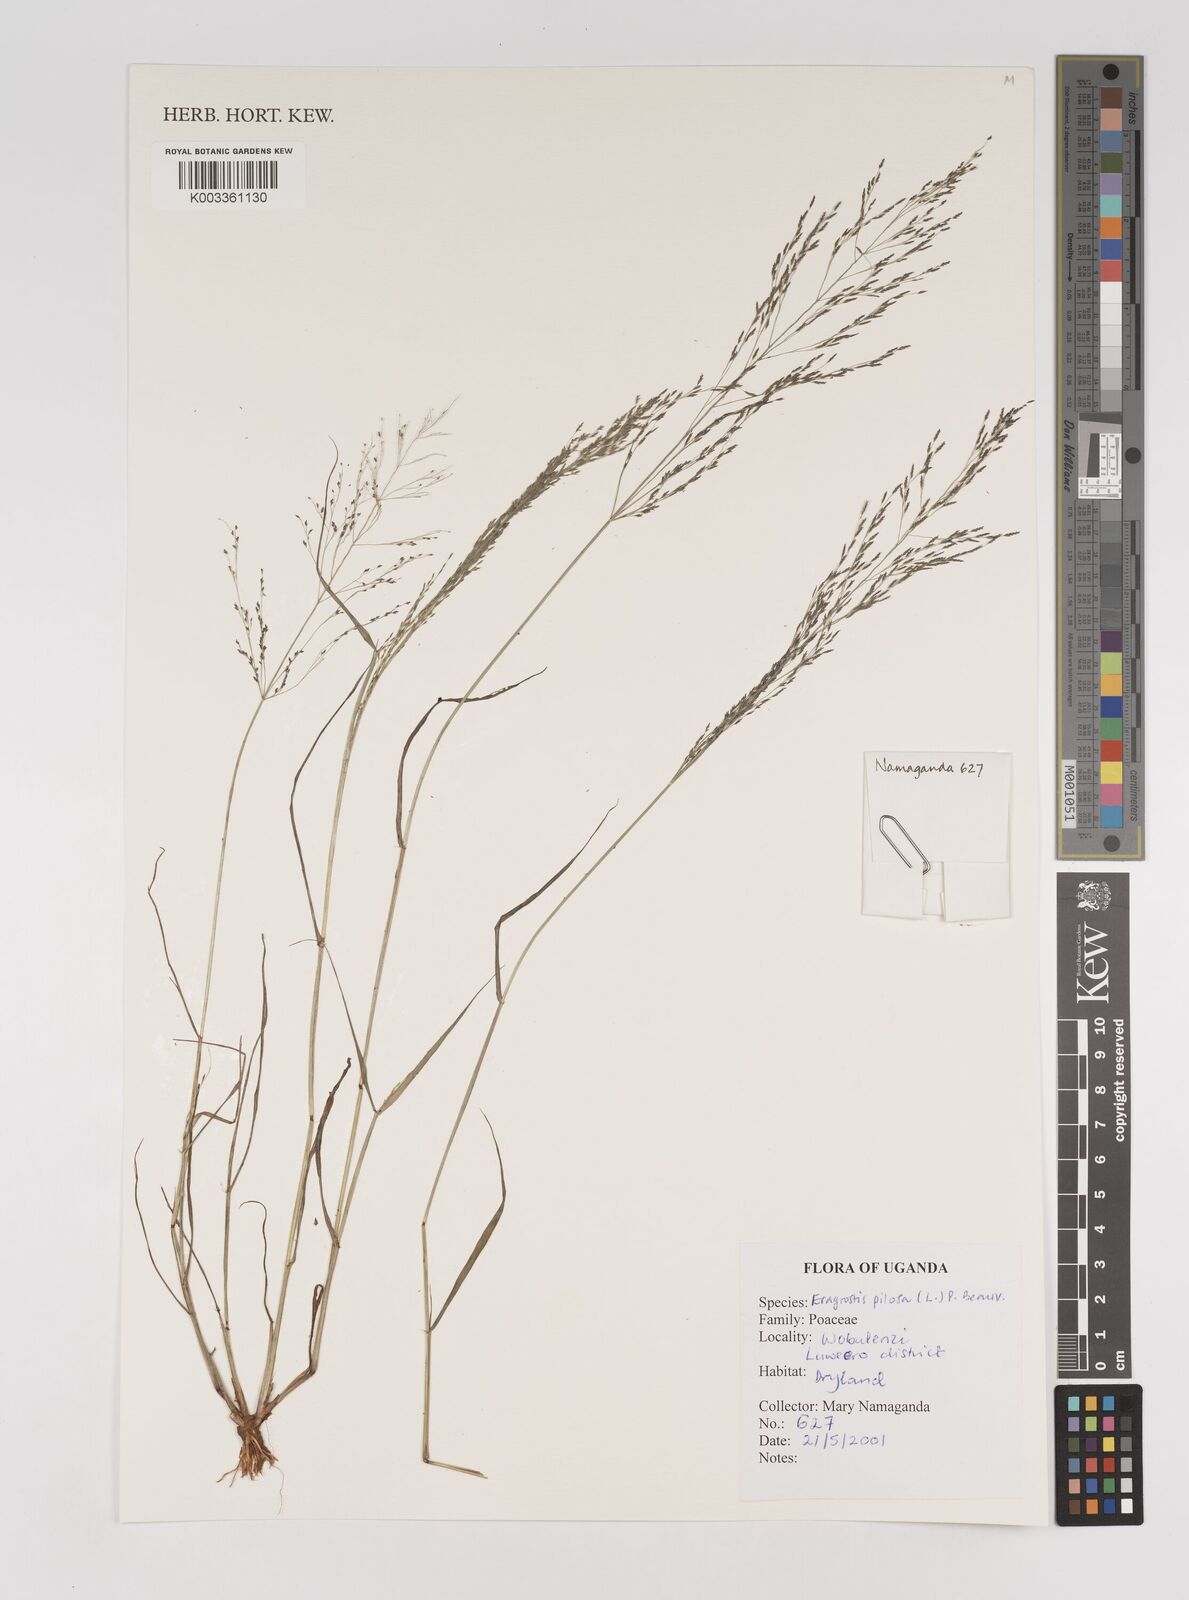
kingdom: Plantae
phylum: Tracheophyta
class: Liliopsida
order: Poales
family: Poaceae
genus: Eragrostis
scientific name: Eragrostis pilosa
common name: Indian lovegrass
